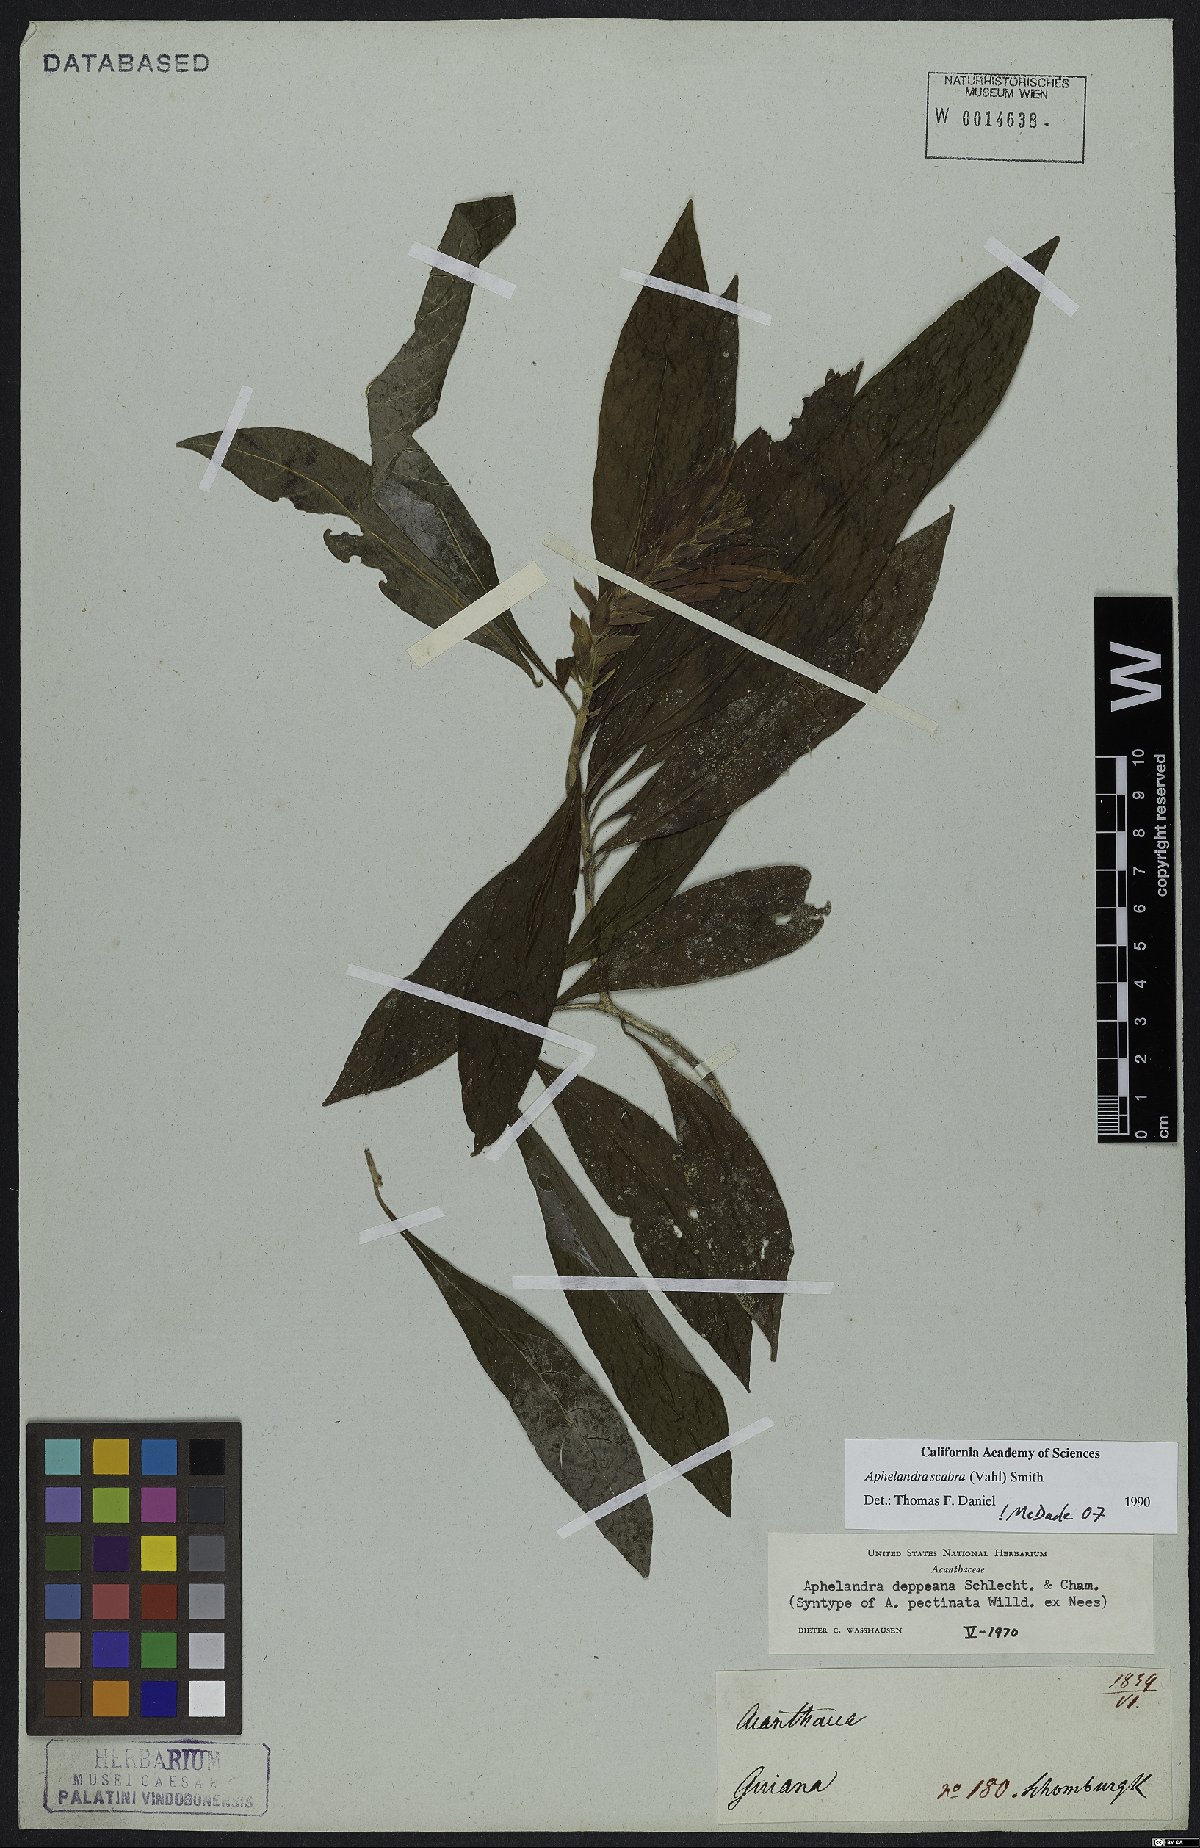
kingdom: Plantae
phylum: Tracheophyta
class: Magnoliopsida
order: Lamiales
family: Acanthaceae
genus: Aphelandra
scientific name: Aphelandra scabra
